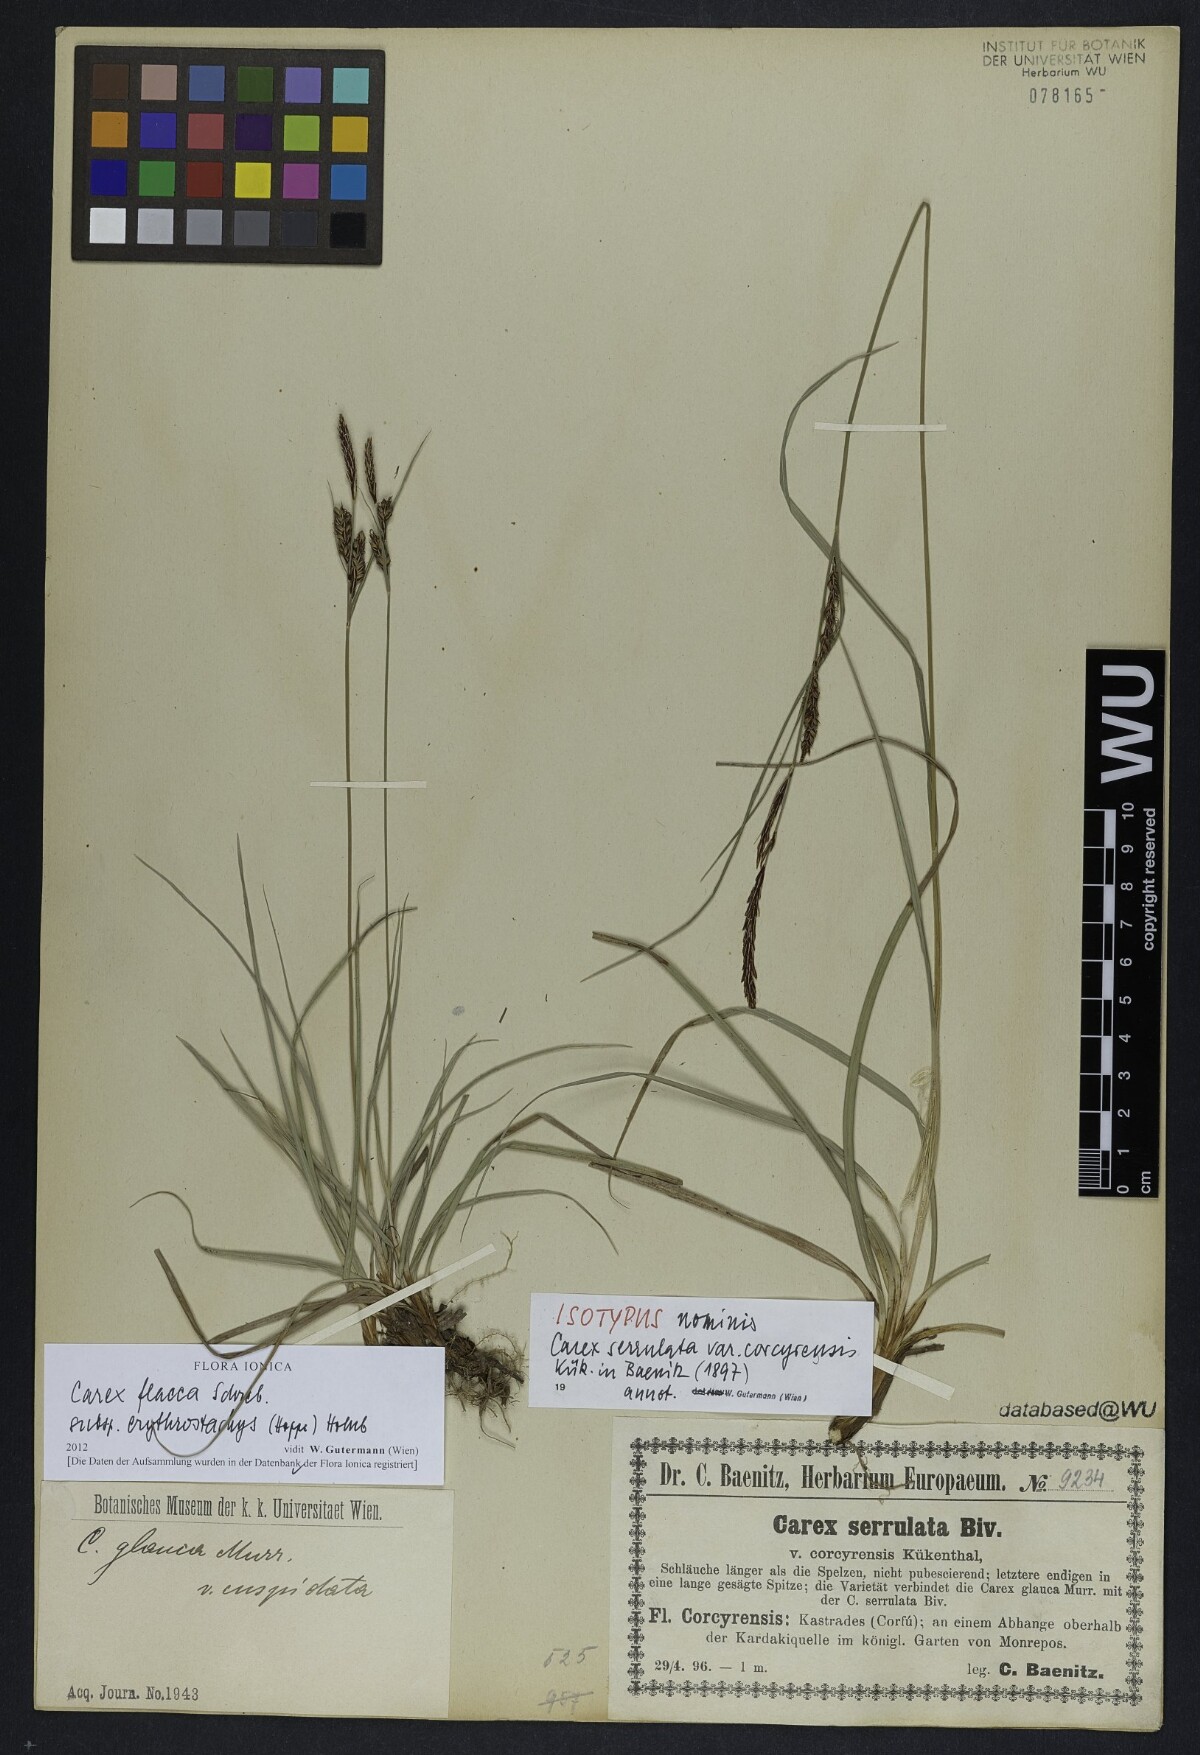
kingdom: Plantae
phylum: Tracheophyta
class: Liliopsida
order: Poales
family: Cyperaceae
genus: Carex
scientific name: Carex flacca
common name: Glaucous sedge
